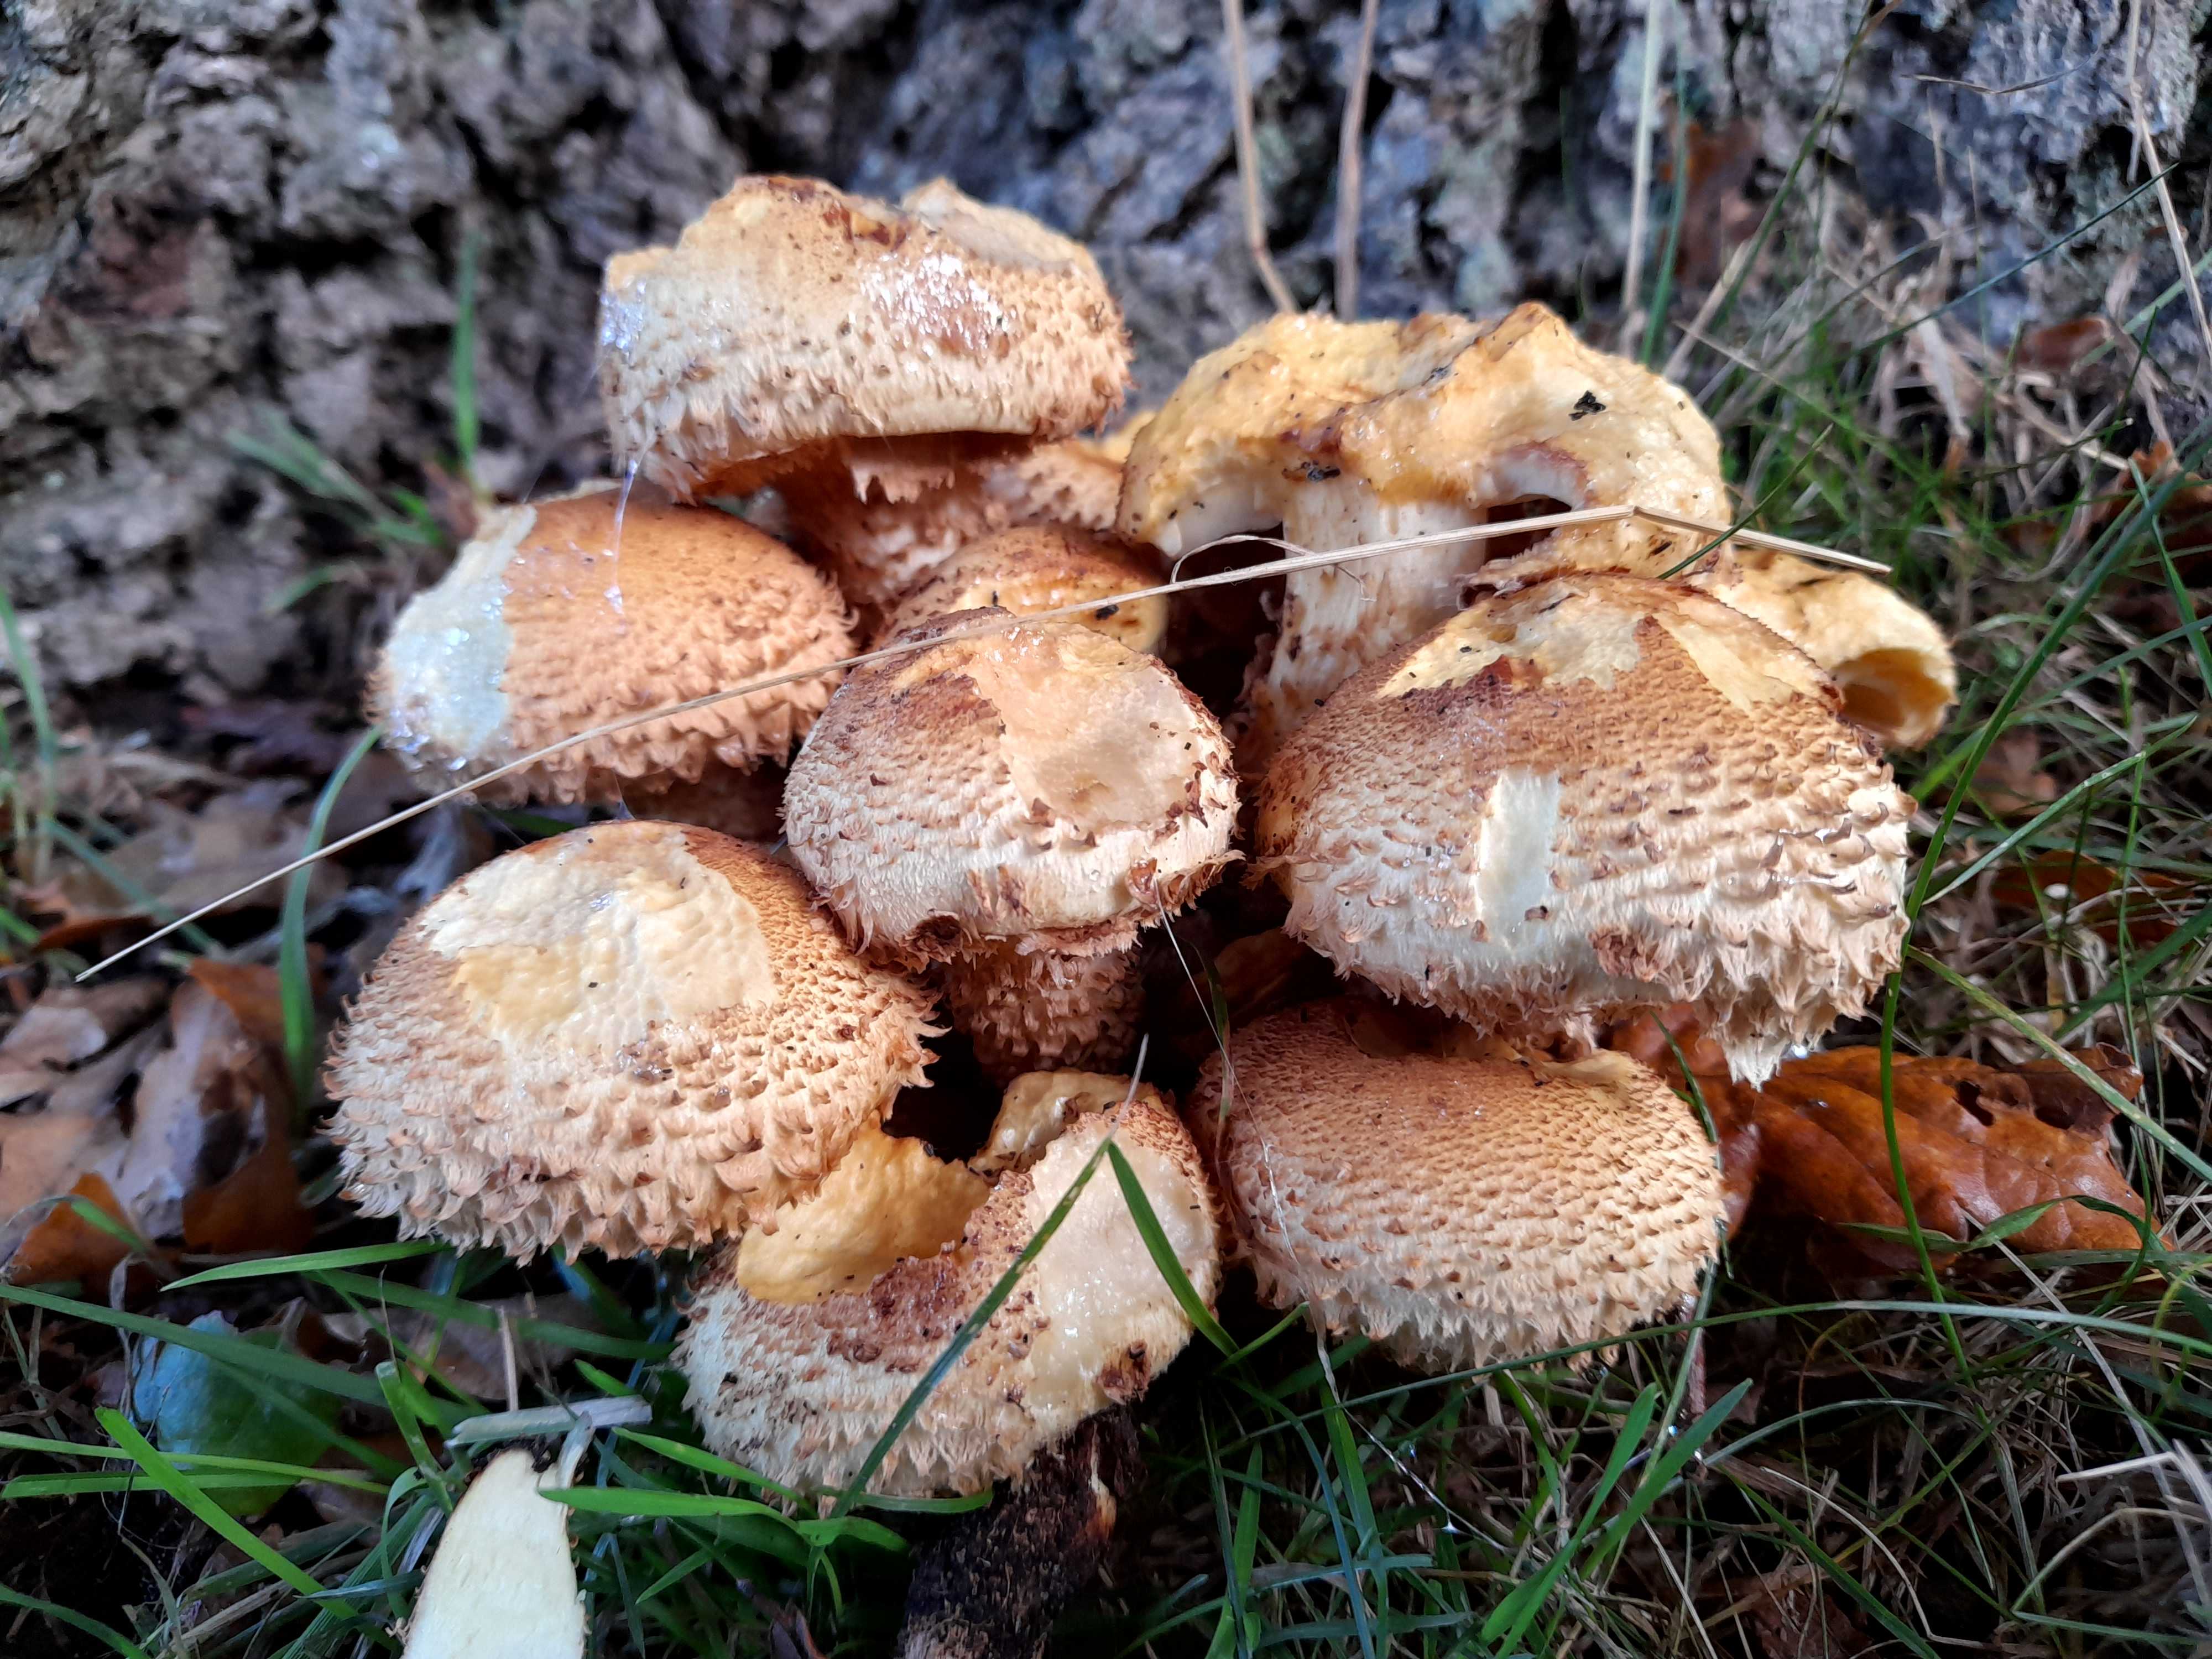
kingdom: Fungi
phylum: Basidiomycota
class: Agaricomycetes
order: Agaricales
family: Strophariaceae
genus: Pholiota
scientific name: Pholiota squarrosa
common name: krumskællet skælhat
